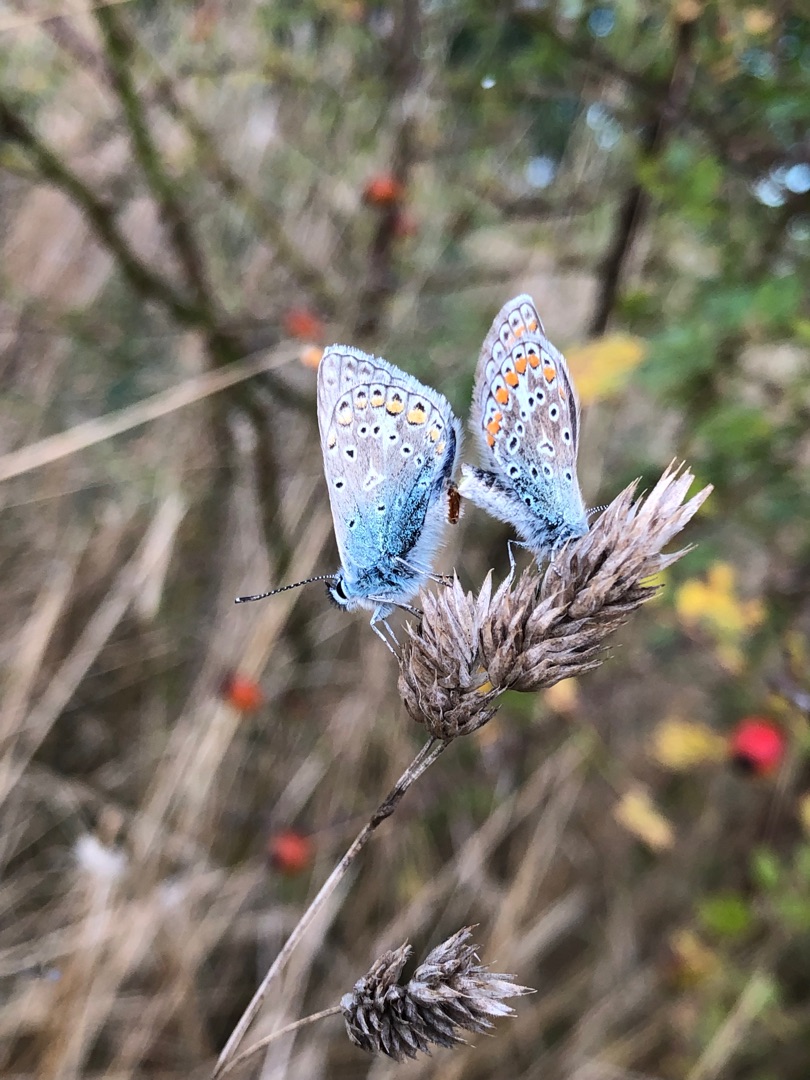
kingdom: Animalia
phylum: Arthropoda
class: Insecta
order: Lepidoptera
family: Lycaenidae
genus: Polyommatus
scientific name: Polyommatus icarus
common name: Almindelig blåfugl
